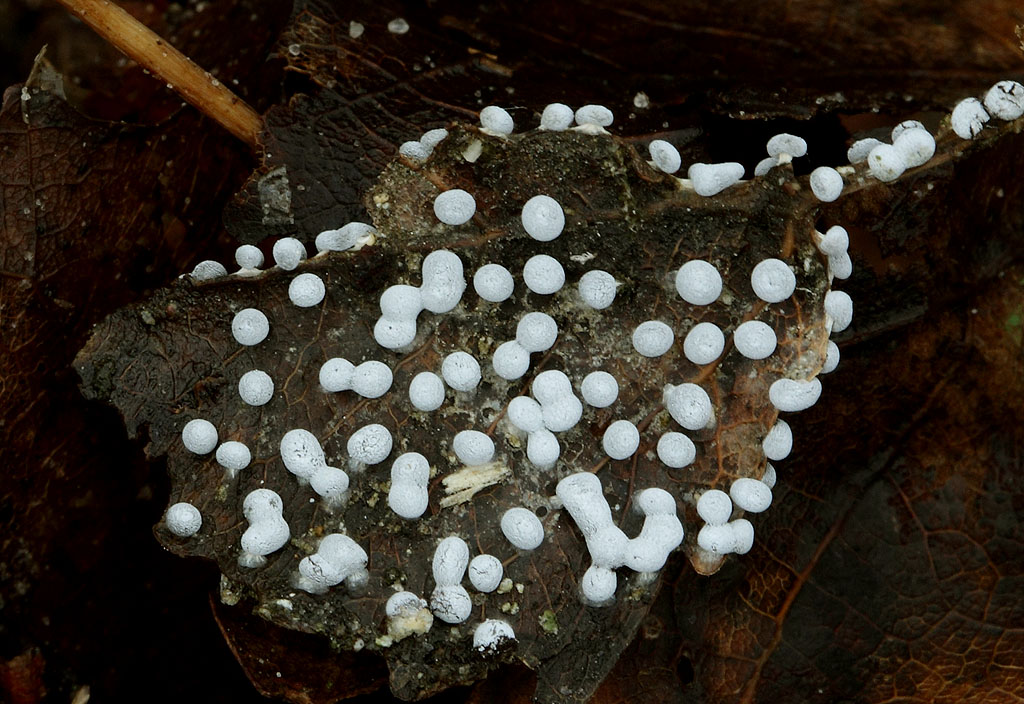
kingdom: Protozoa
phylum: Mycetozoa
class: Myxomycetes
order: Physarales
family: Didymiaceae
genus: Didymium
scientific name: Didymium squamulosum
